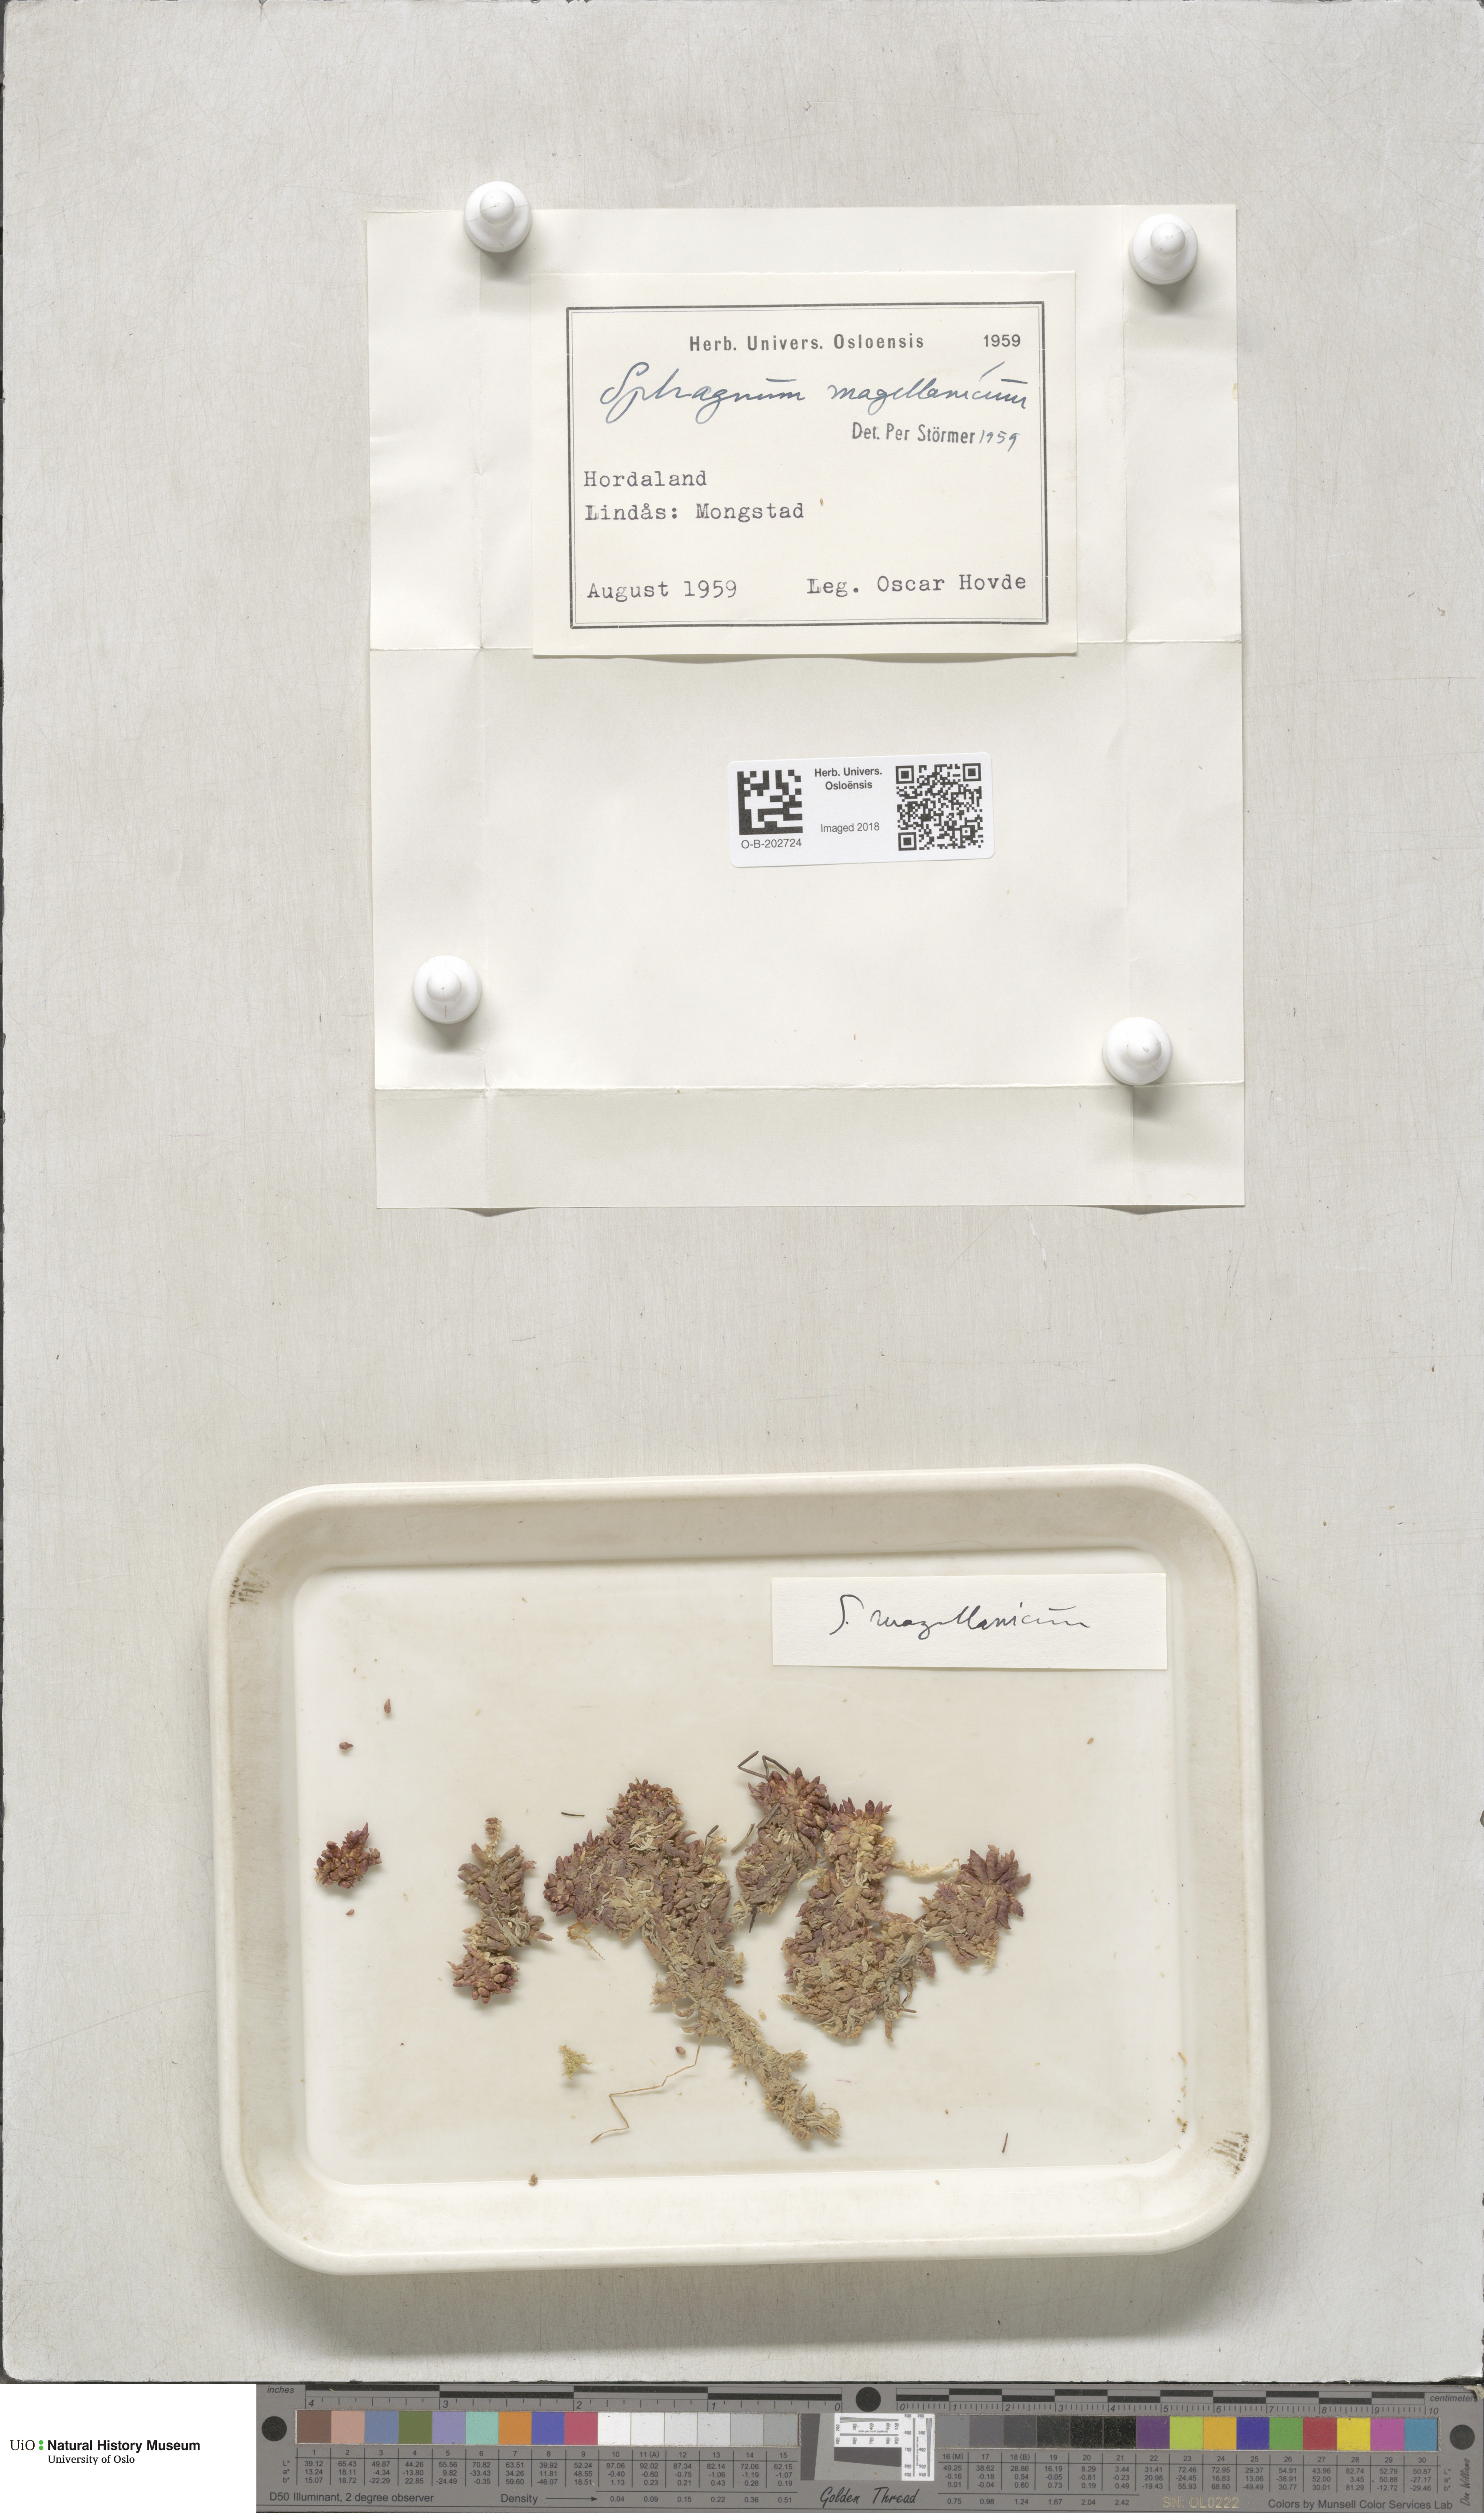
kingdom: Plantae
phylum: Bryophyta
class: Sphagnopsida
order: Sphagnales
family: Sphagnaceae
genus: Sphagnum
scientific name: Sphagnum magellanicum
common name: Magellan's peat moss
